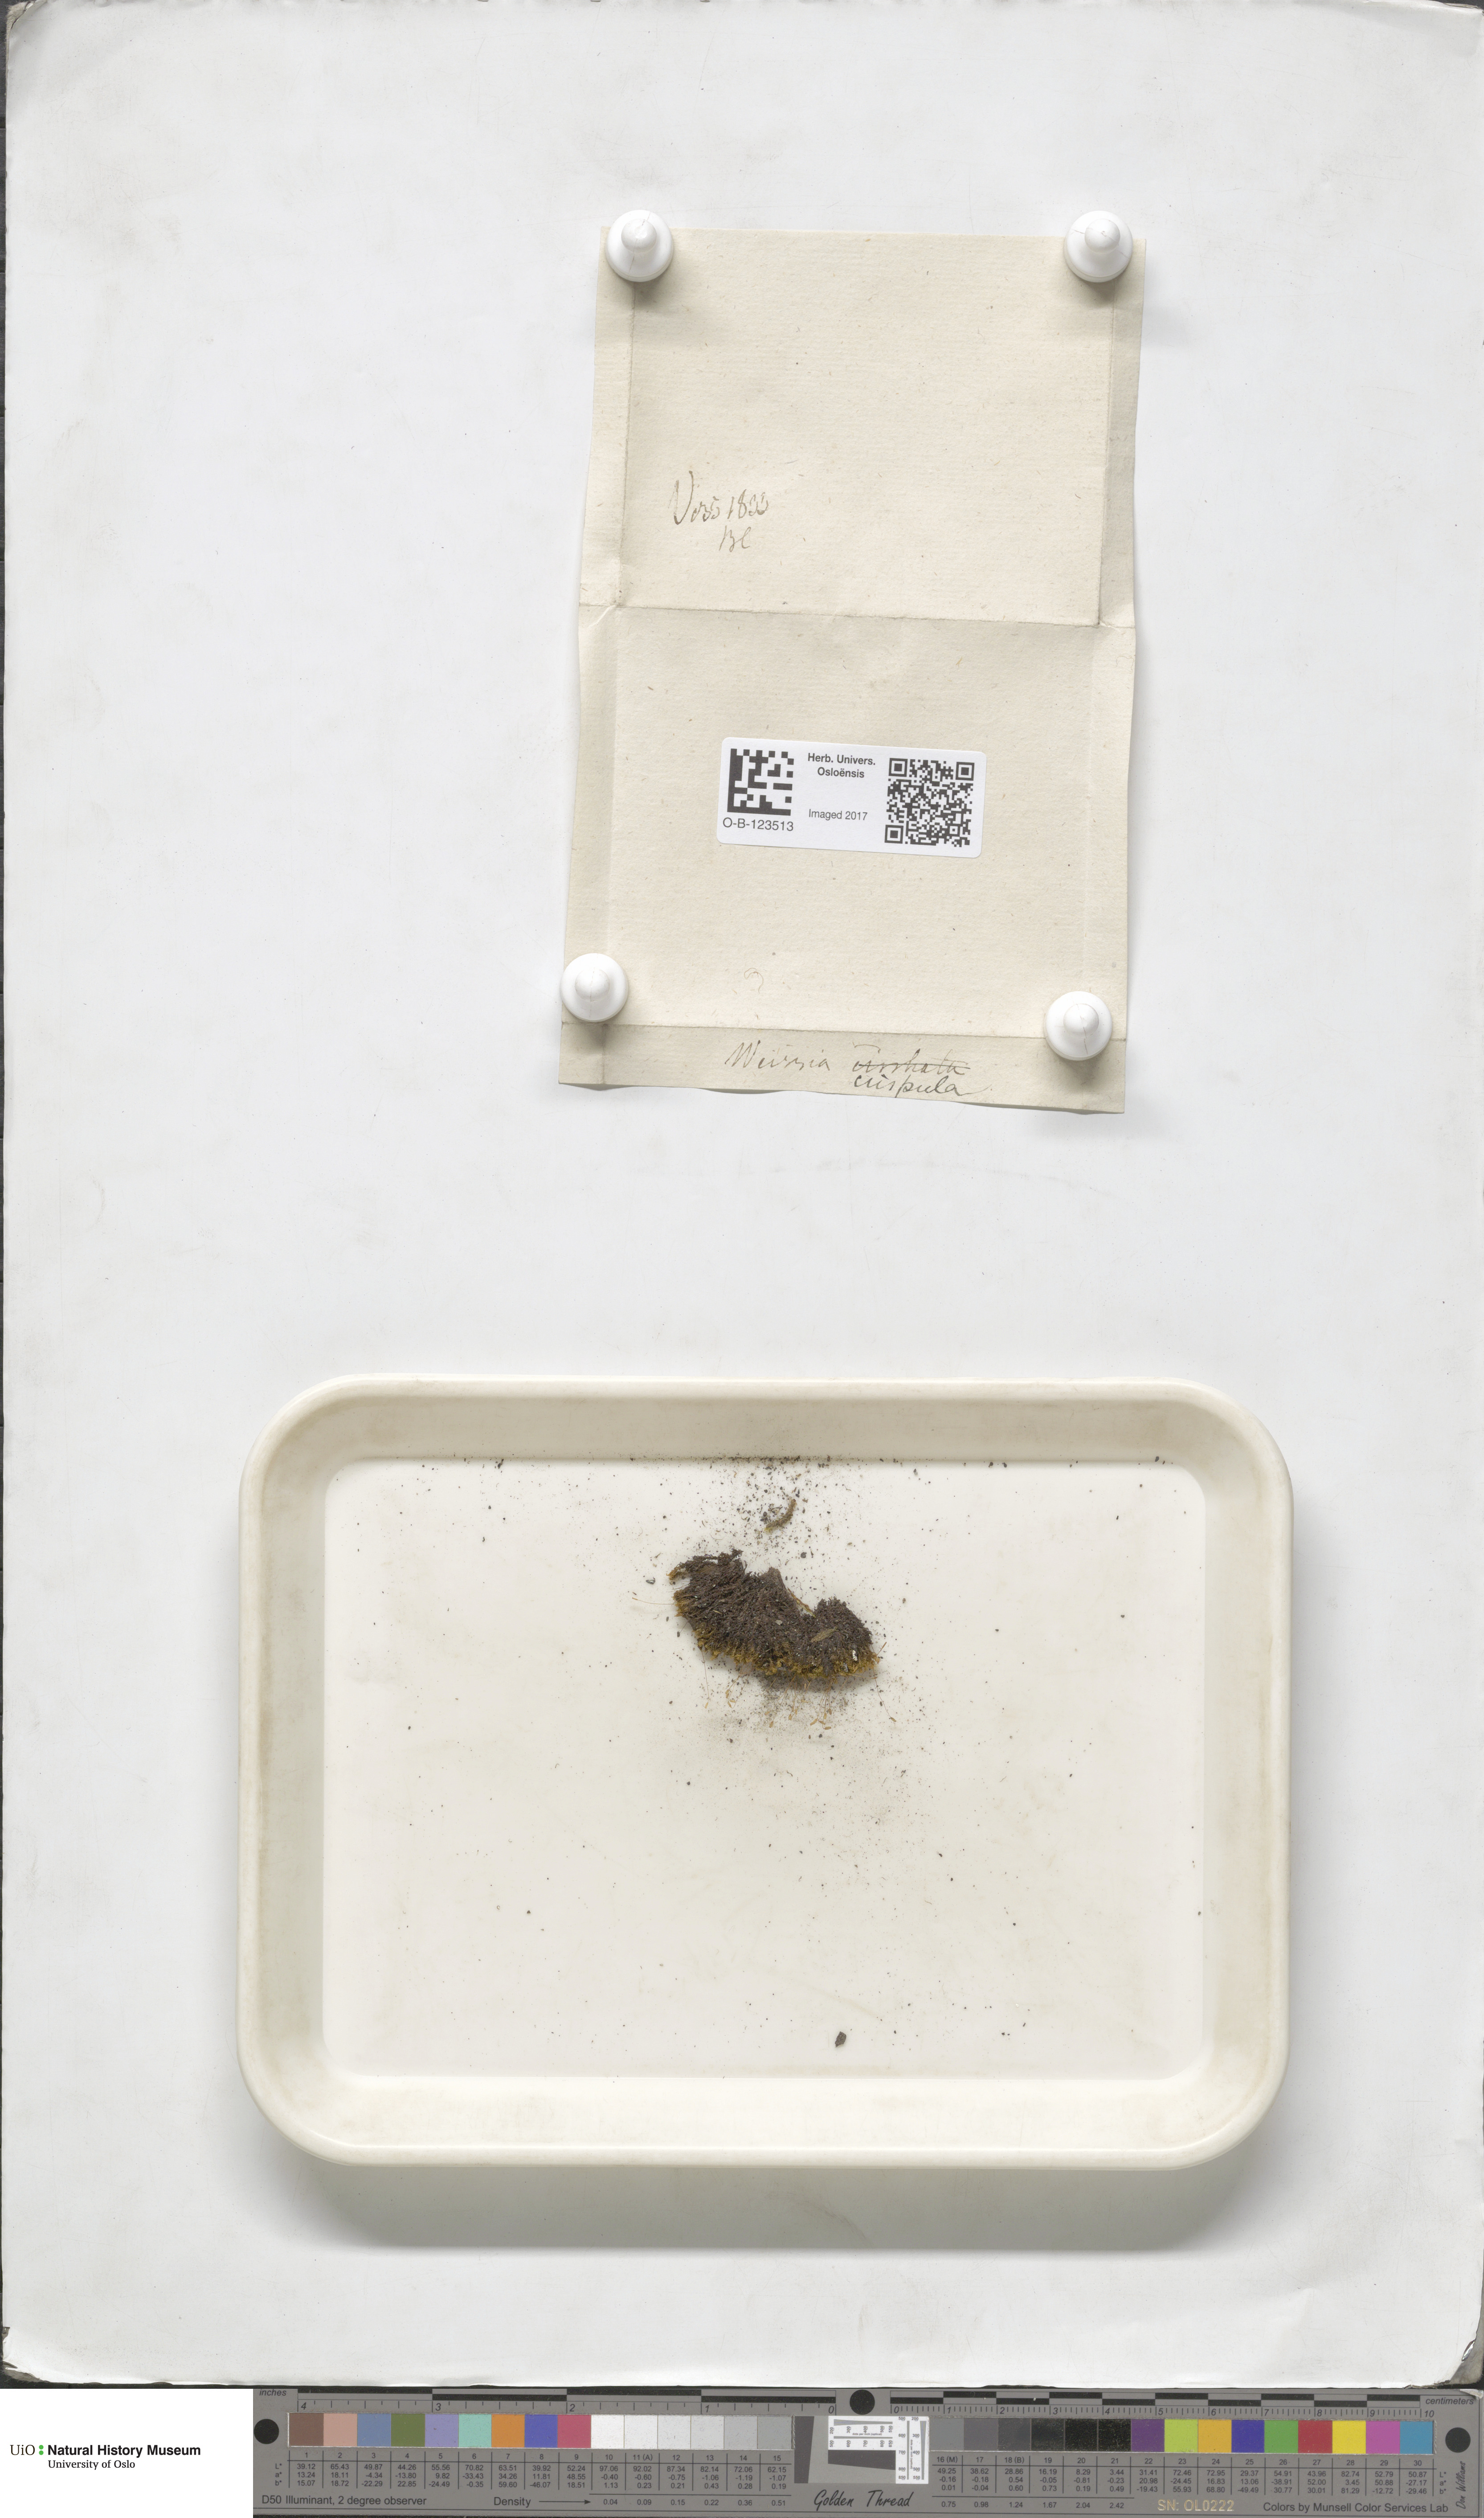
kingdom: Plantae
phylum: Bryophyta
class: Bryopsida
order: Scouleriales
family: Hymenolomataceae
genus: Hymenoloma
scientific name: Hymenoloma crispulum
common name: Mountain pincushion
